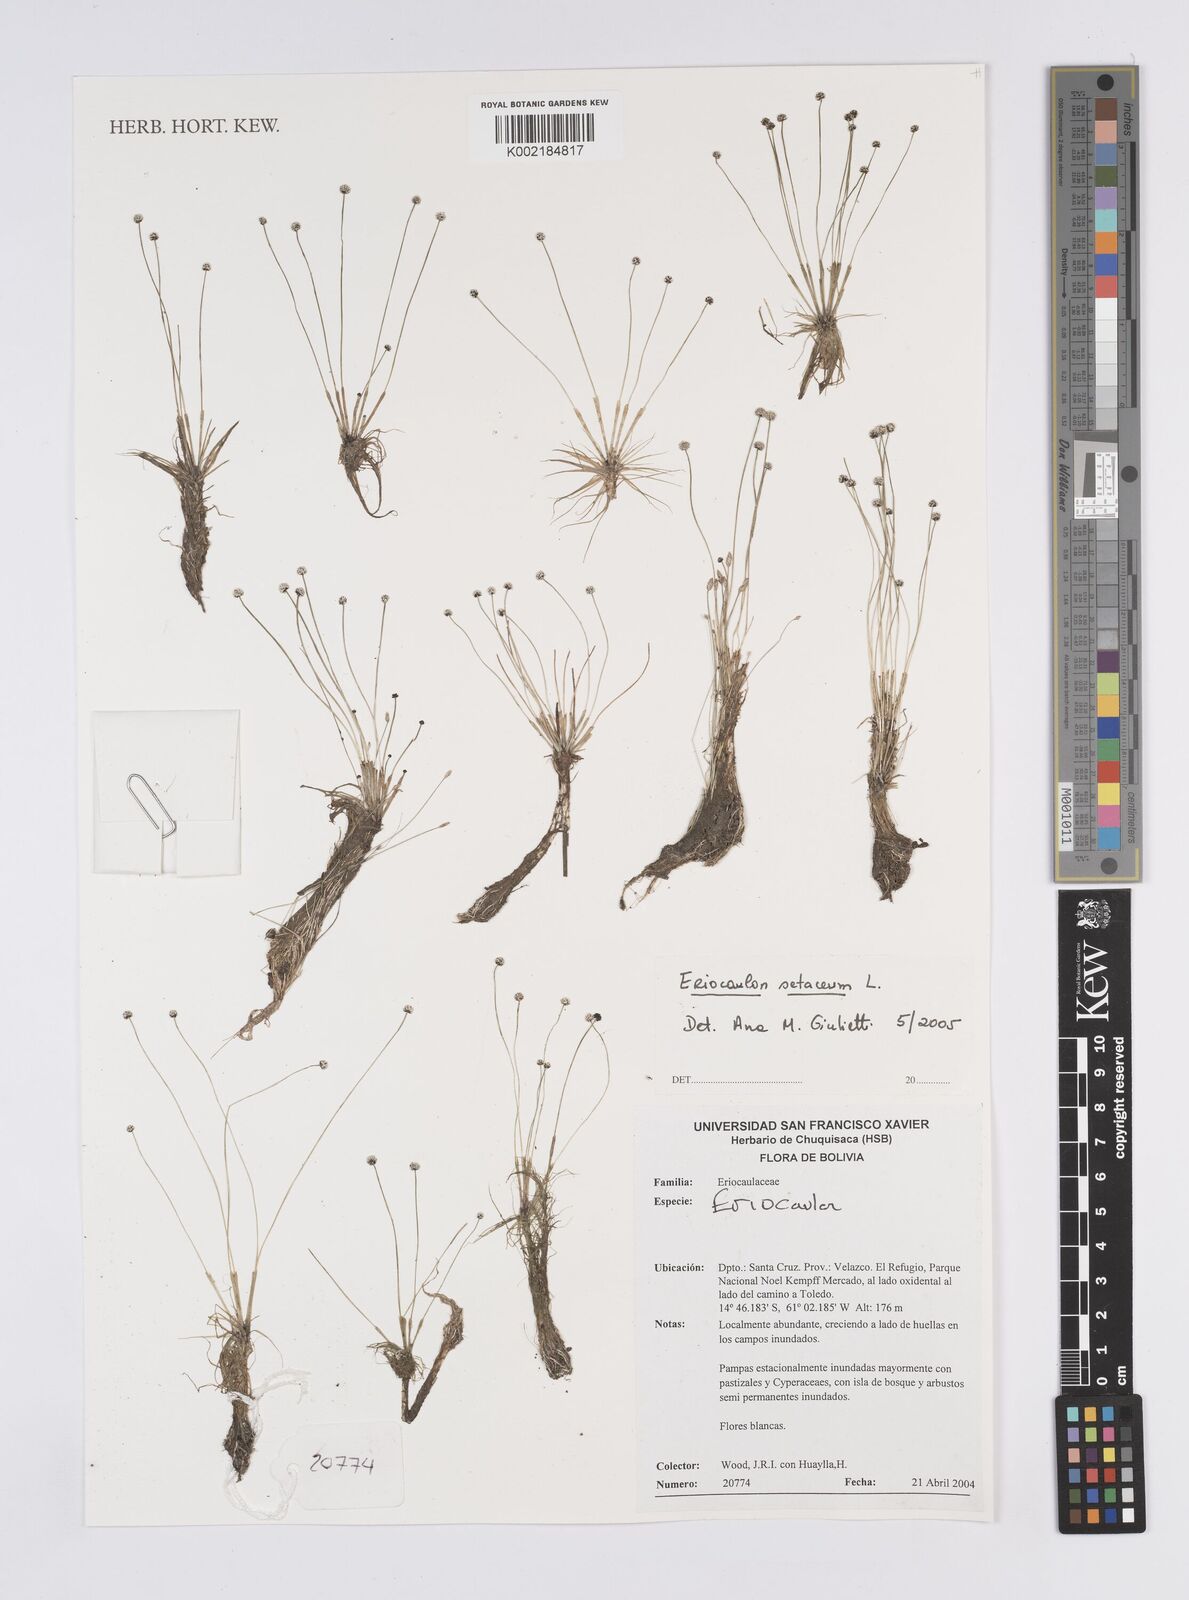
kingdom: Plantae
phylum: Tracheophyta
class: Liliopsida
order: Poales
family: Eriocaulaceae
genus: Eriocaulon
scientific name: Eriocaulon setaceum
